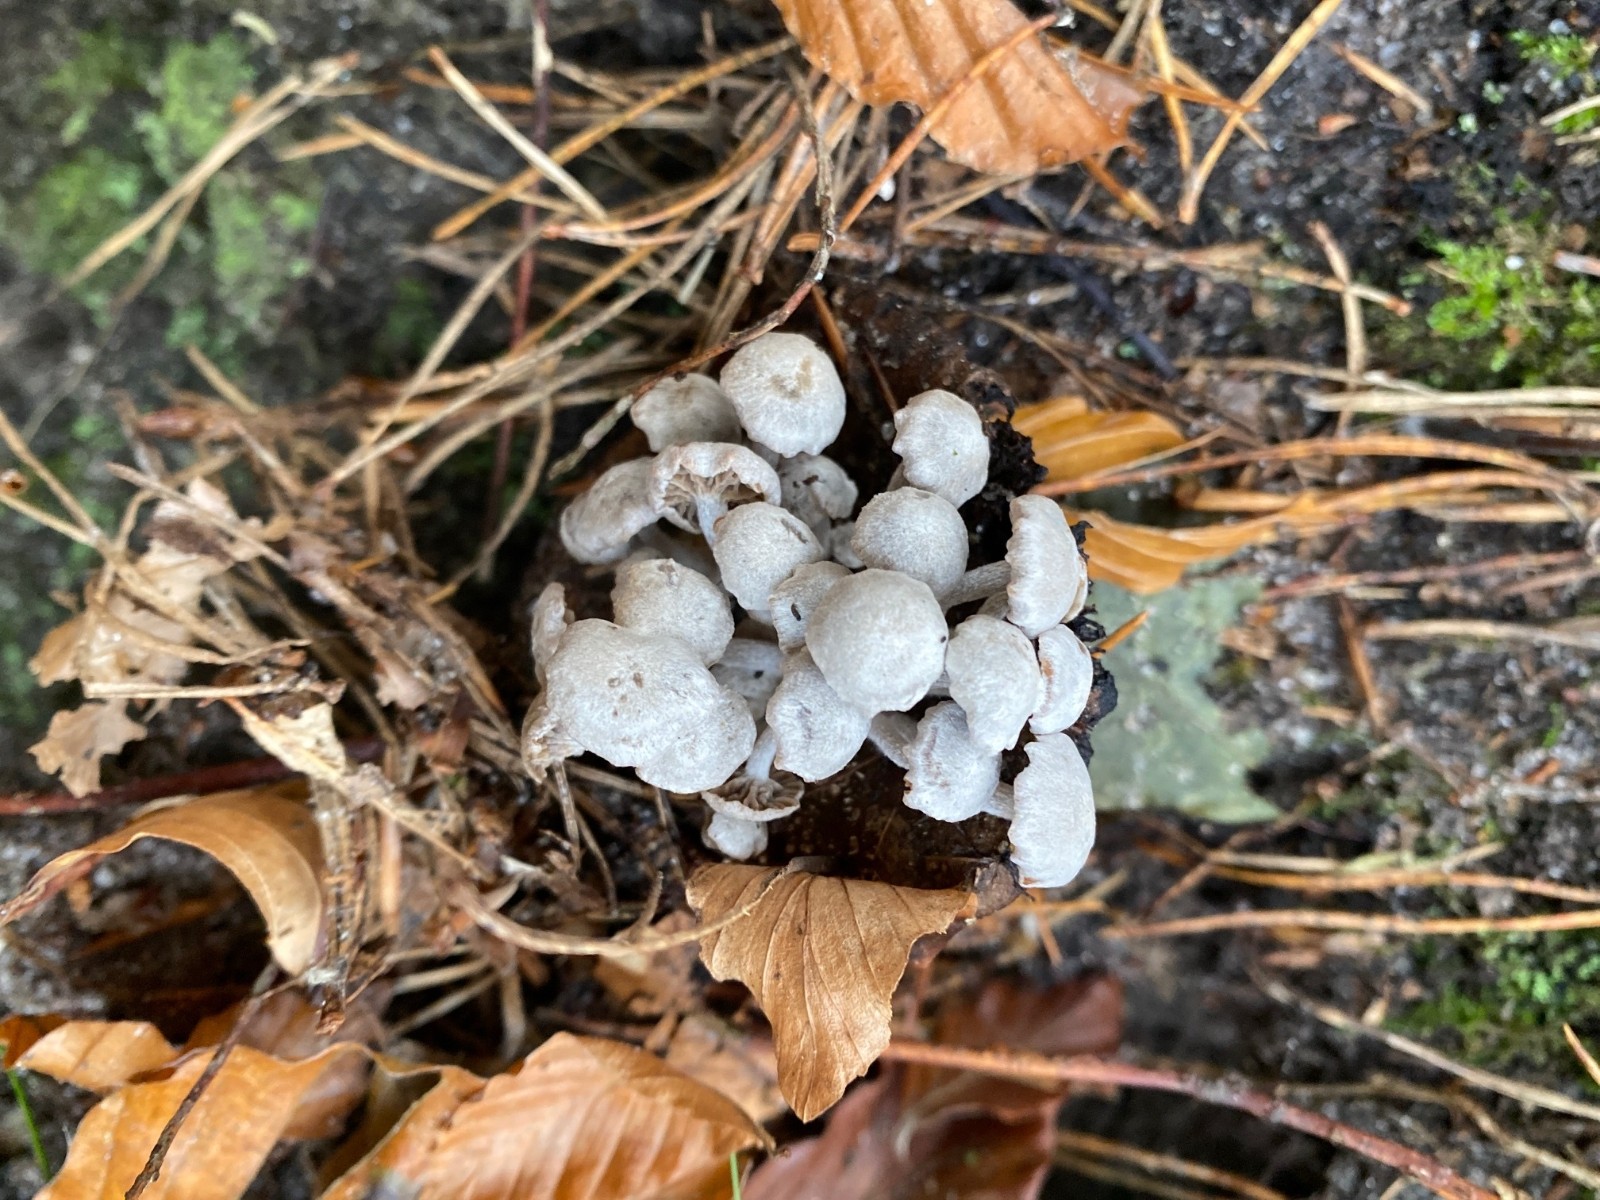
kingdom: Fungi
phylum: Basidiomycota
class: Agaricomycetes
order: Agaricales
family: Lyophyllaceae
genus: Asterophora
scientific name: Asterophora parasitica
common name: grå snyltehat
